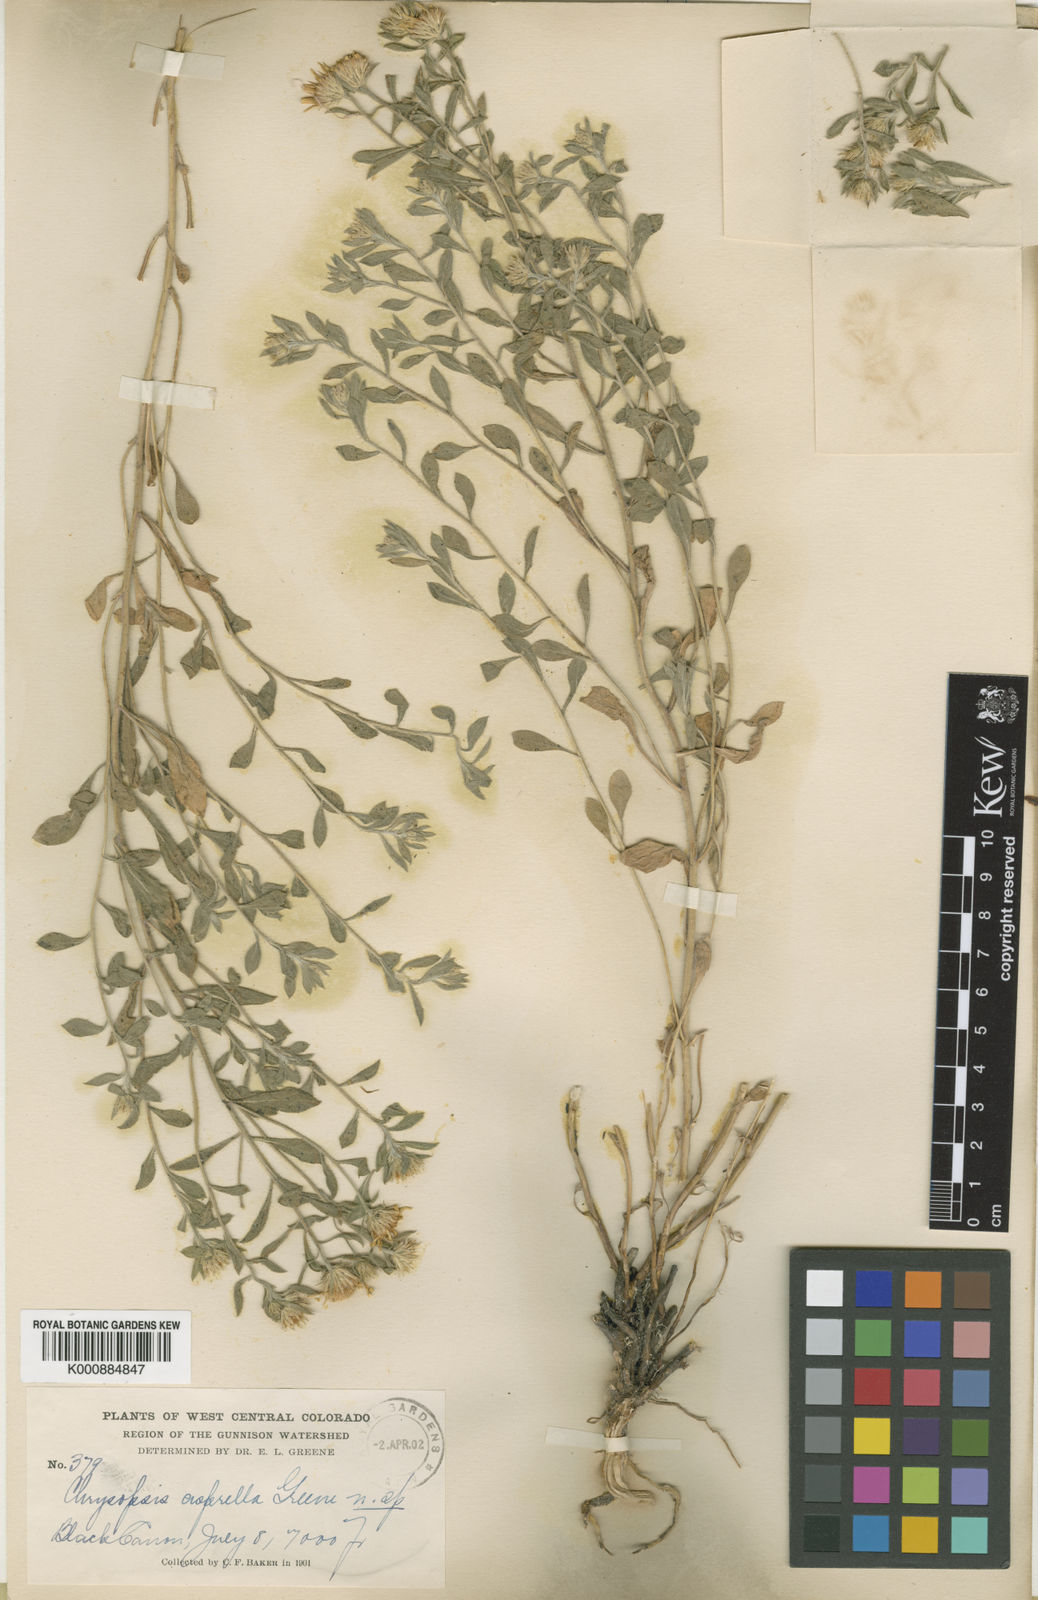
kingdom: Plantae
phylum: Tracheophyta
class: Magnoliopsida
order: Asterales
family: Asteraceae
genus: Lessingia
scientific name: Lessingia
